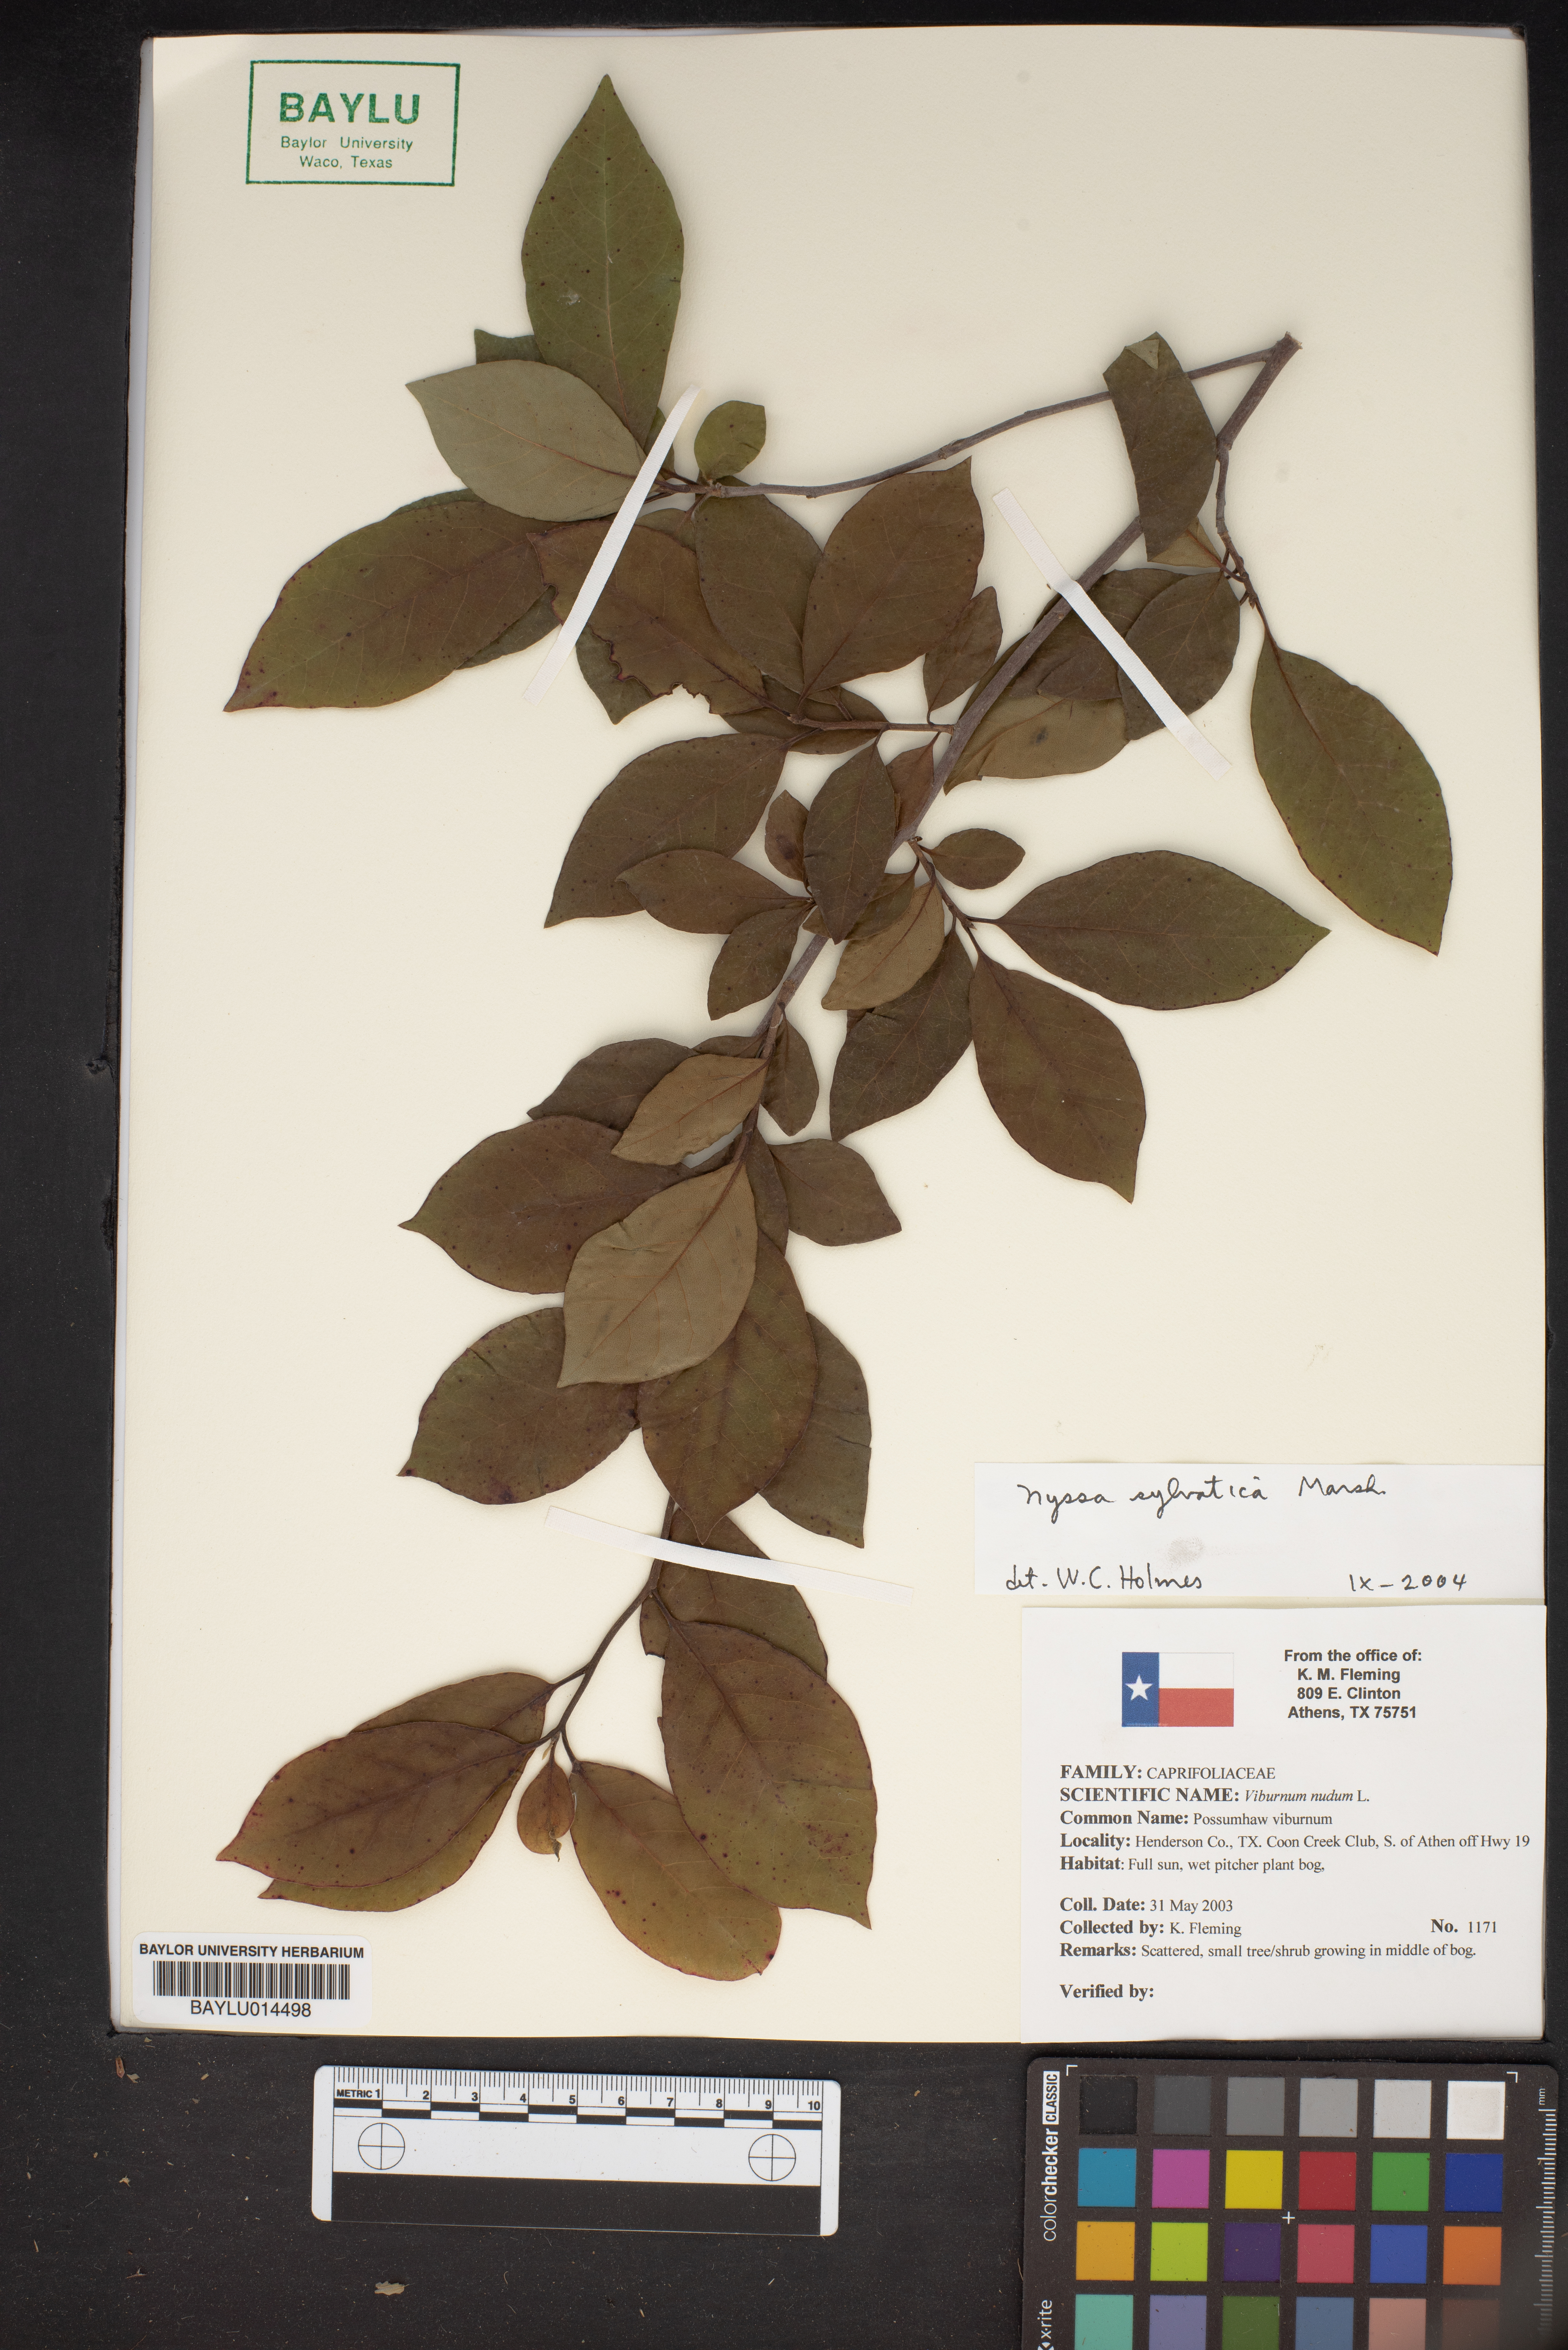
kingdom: Plantae
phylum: Tracheophyta
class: Magnoliopsida
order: Cornales
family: Nyssaceae
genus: Nyssa
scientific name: Nyssa sylvatica
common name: Black tupelo
